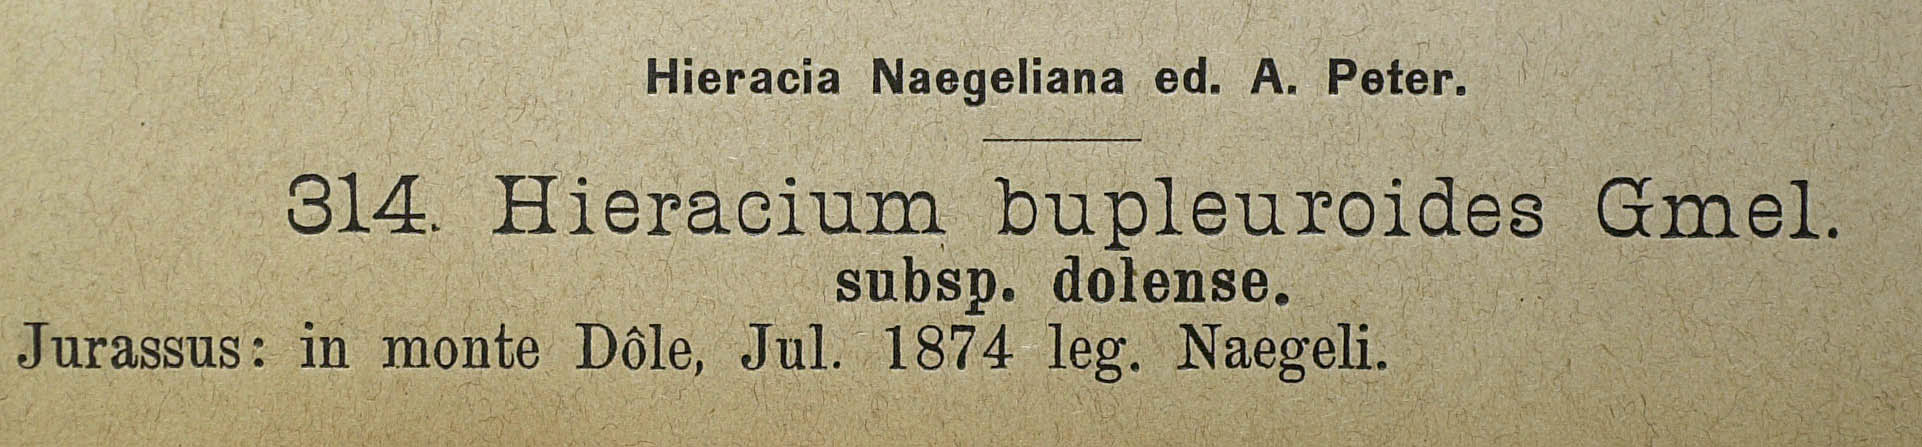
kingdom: Plantae
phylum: Tracheophyta
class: Magnoliopsida
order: Asterales
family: Asteraceae
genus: Hieracium
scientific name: Hieracium bupleuroides
